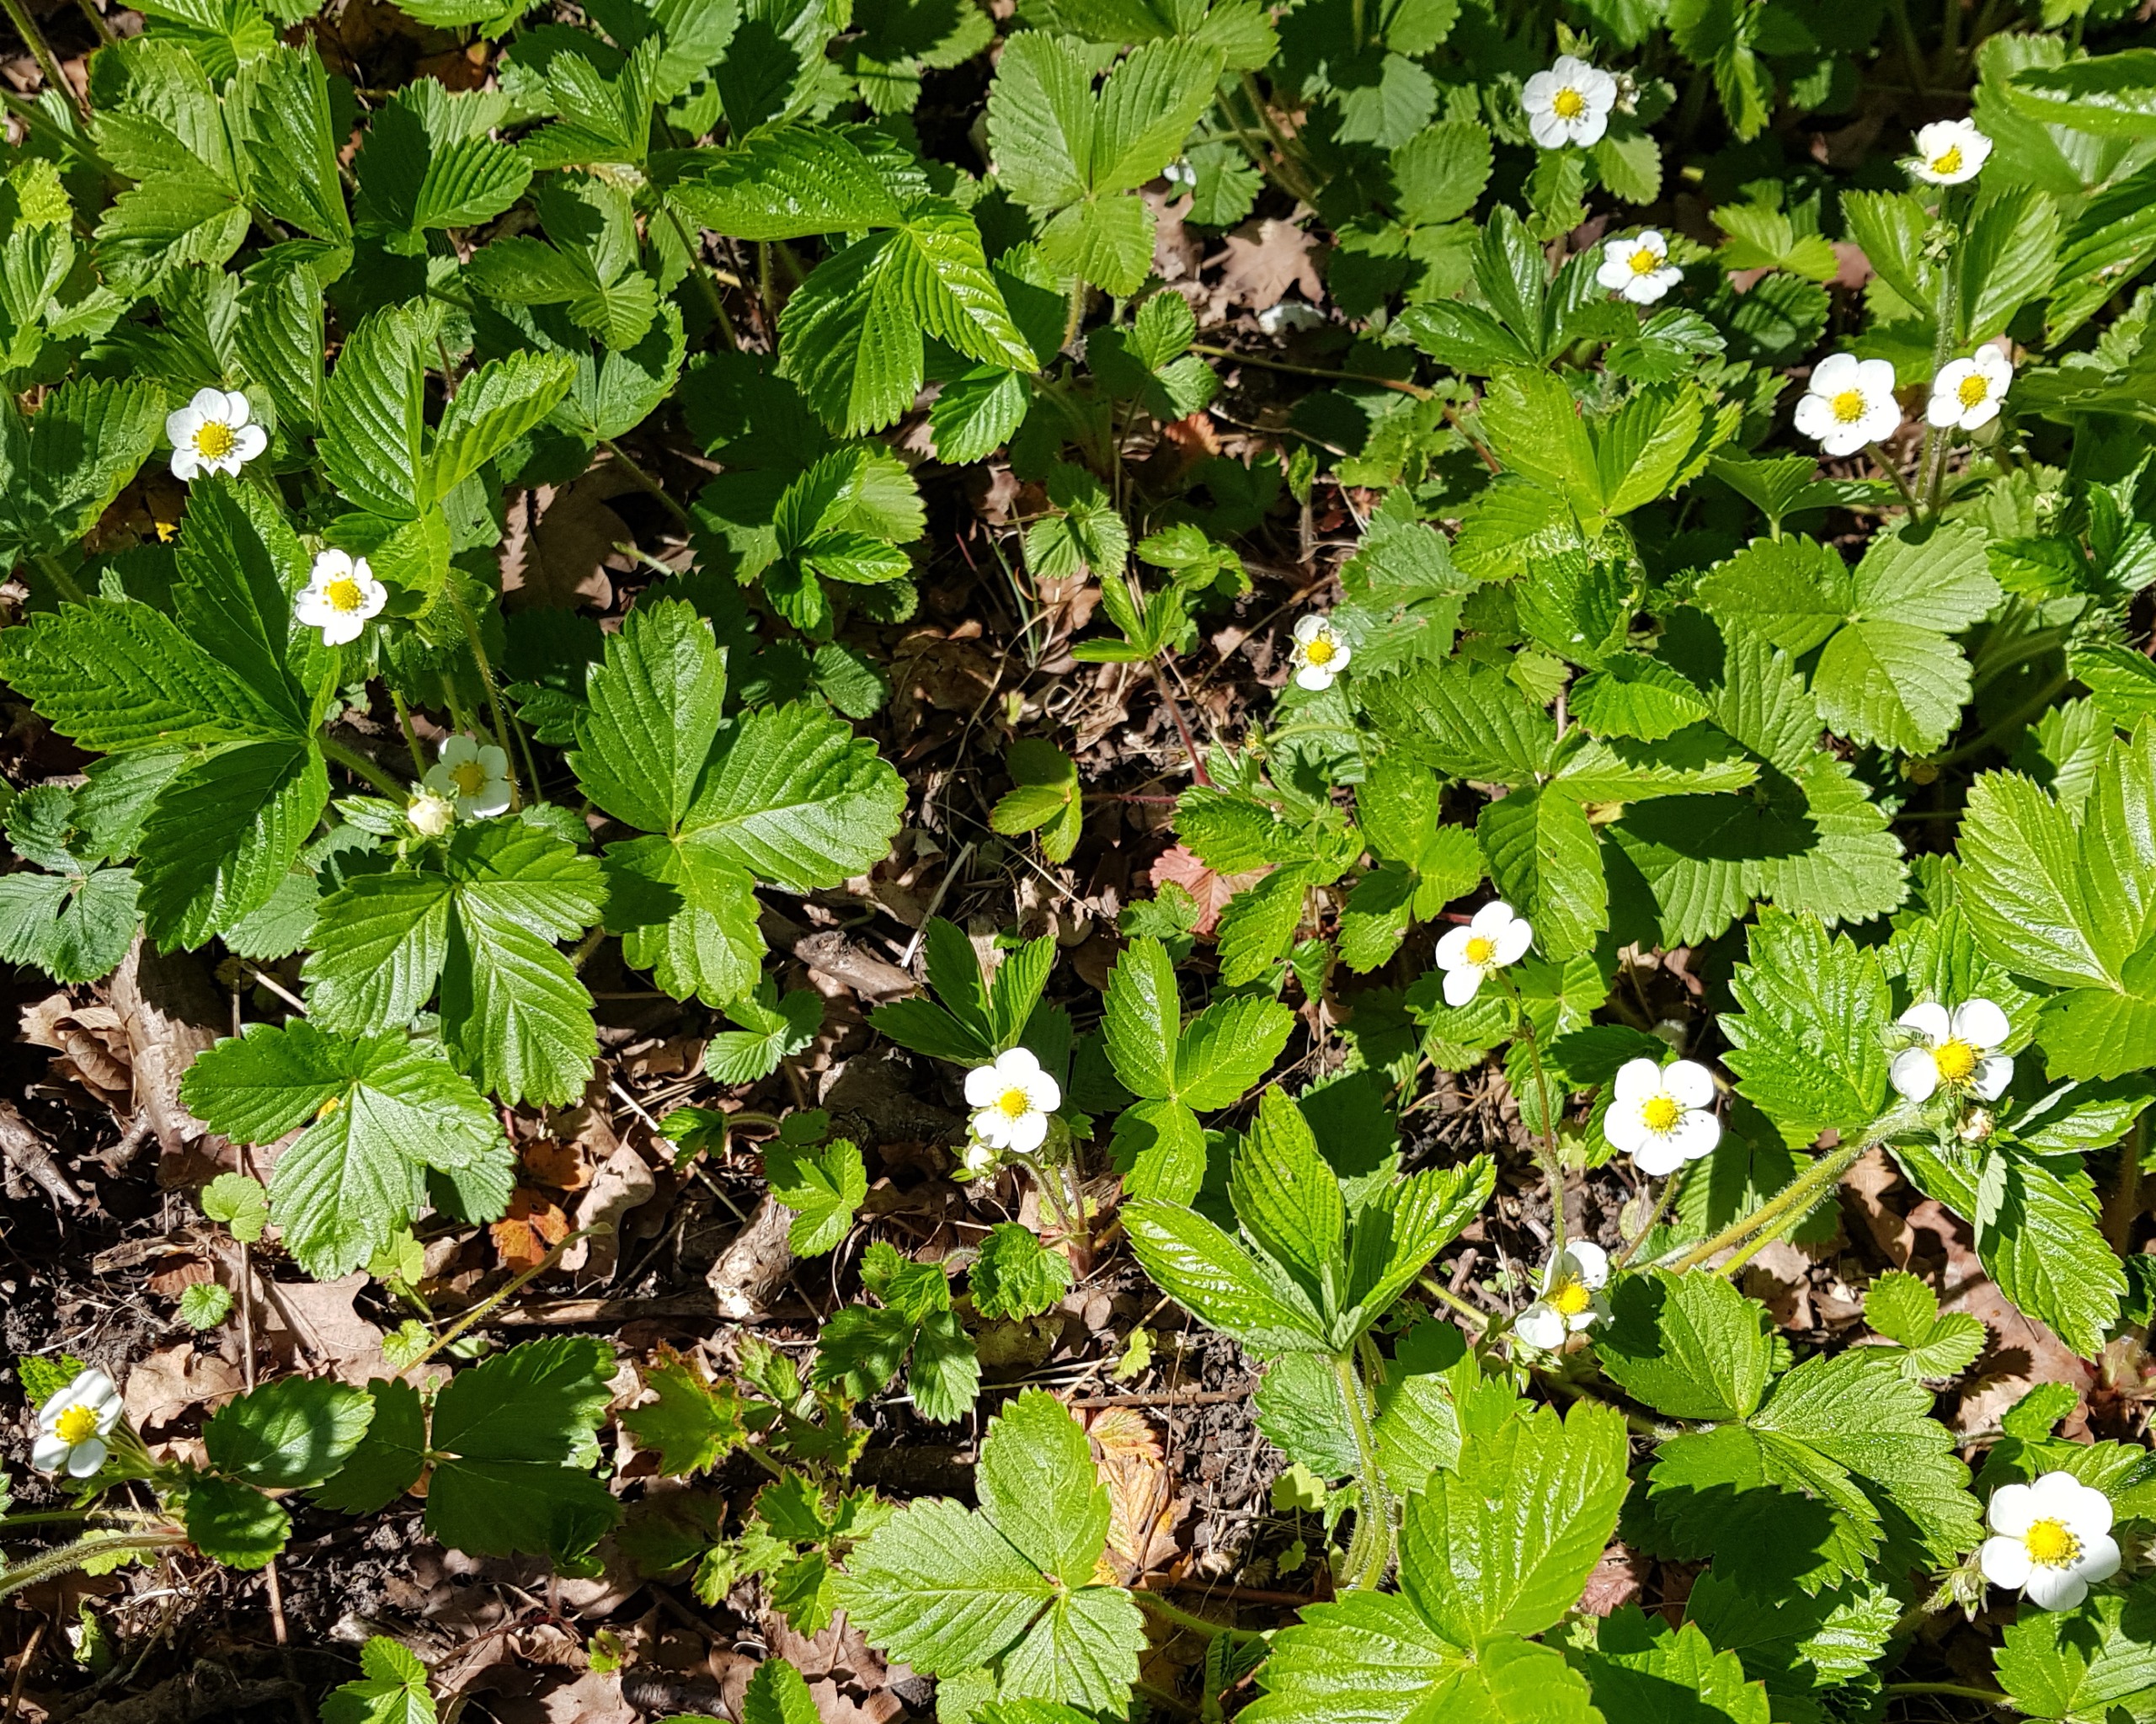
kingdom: Plantae
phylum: Tracheophyta
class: Magnoliopsida
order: Rosales
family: Rosaceae
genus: Fragaria
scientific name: Fragaria vesca
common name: Skov-jordbær
